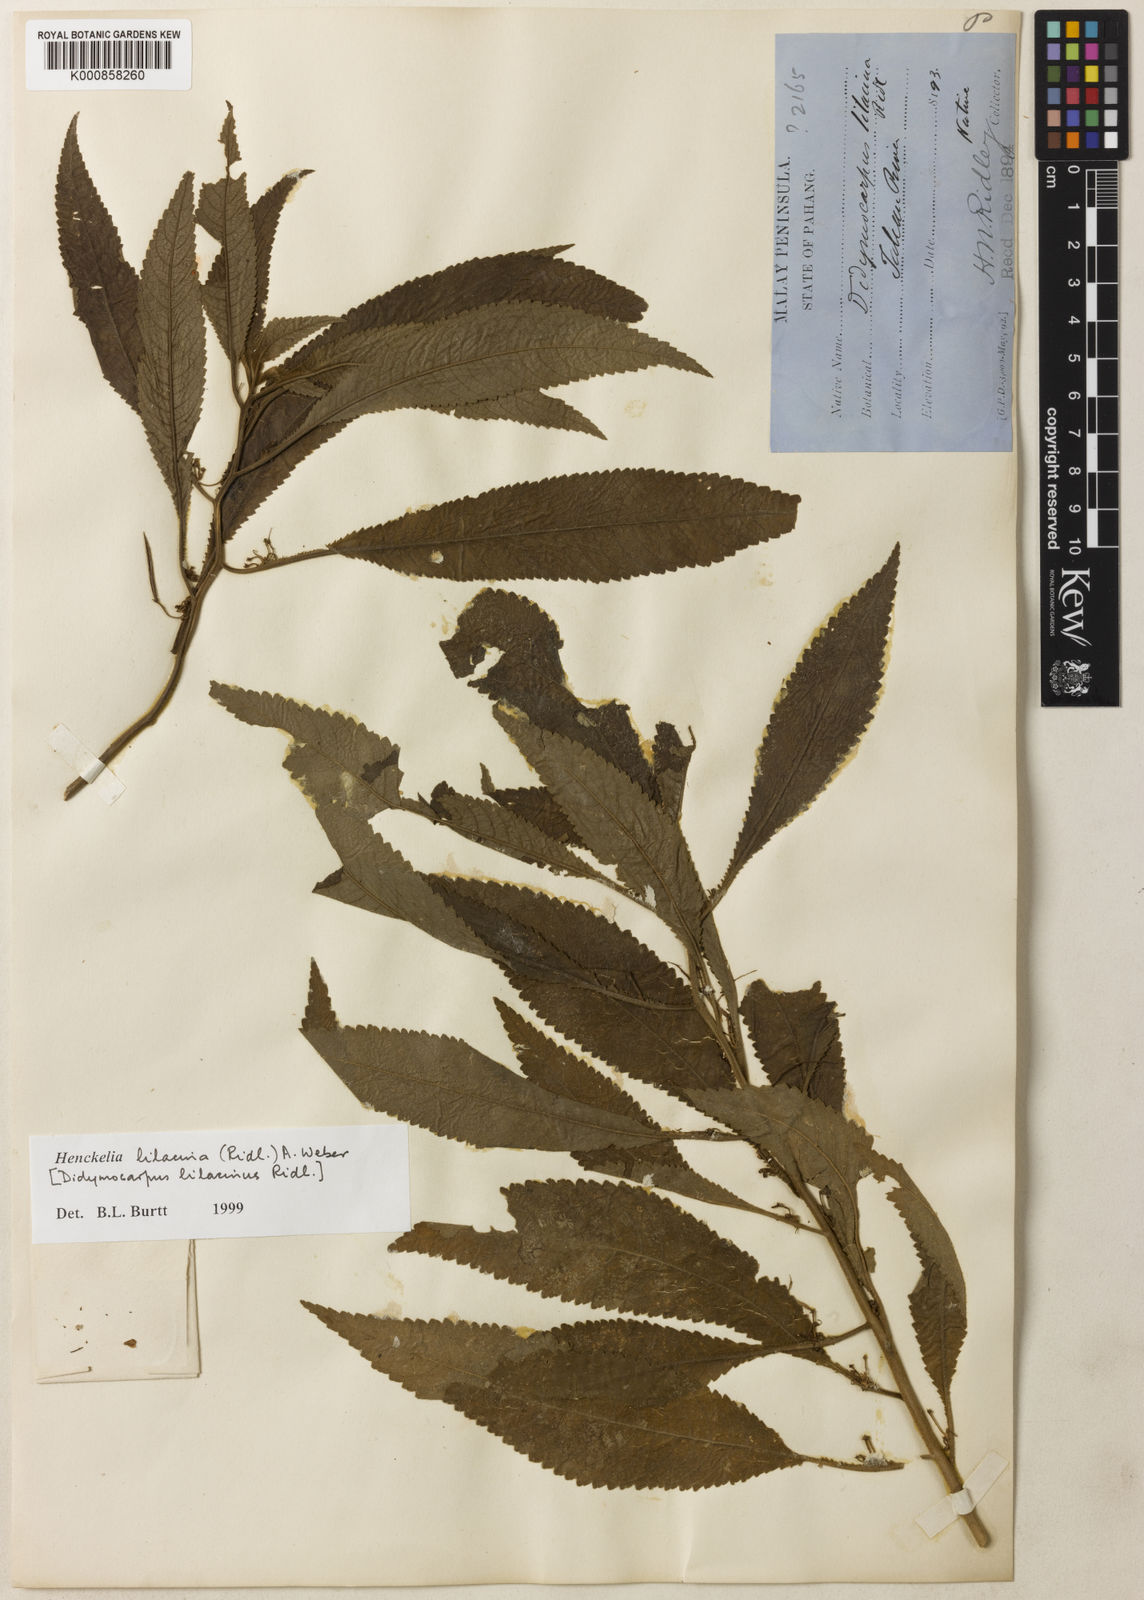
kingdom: Plantae
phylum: Tracheophyta
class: Magnoliopsida
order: Lamiales
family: Gesneriaceae
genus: Codonoboea
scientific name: Codonoboea lilacina
